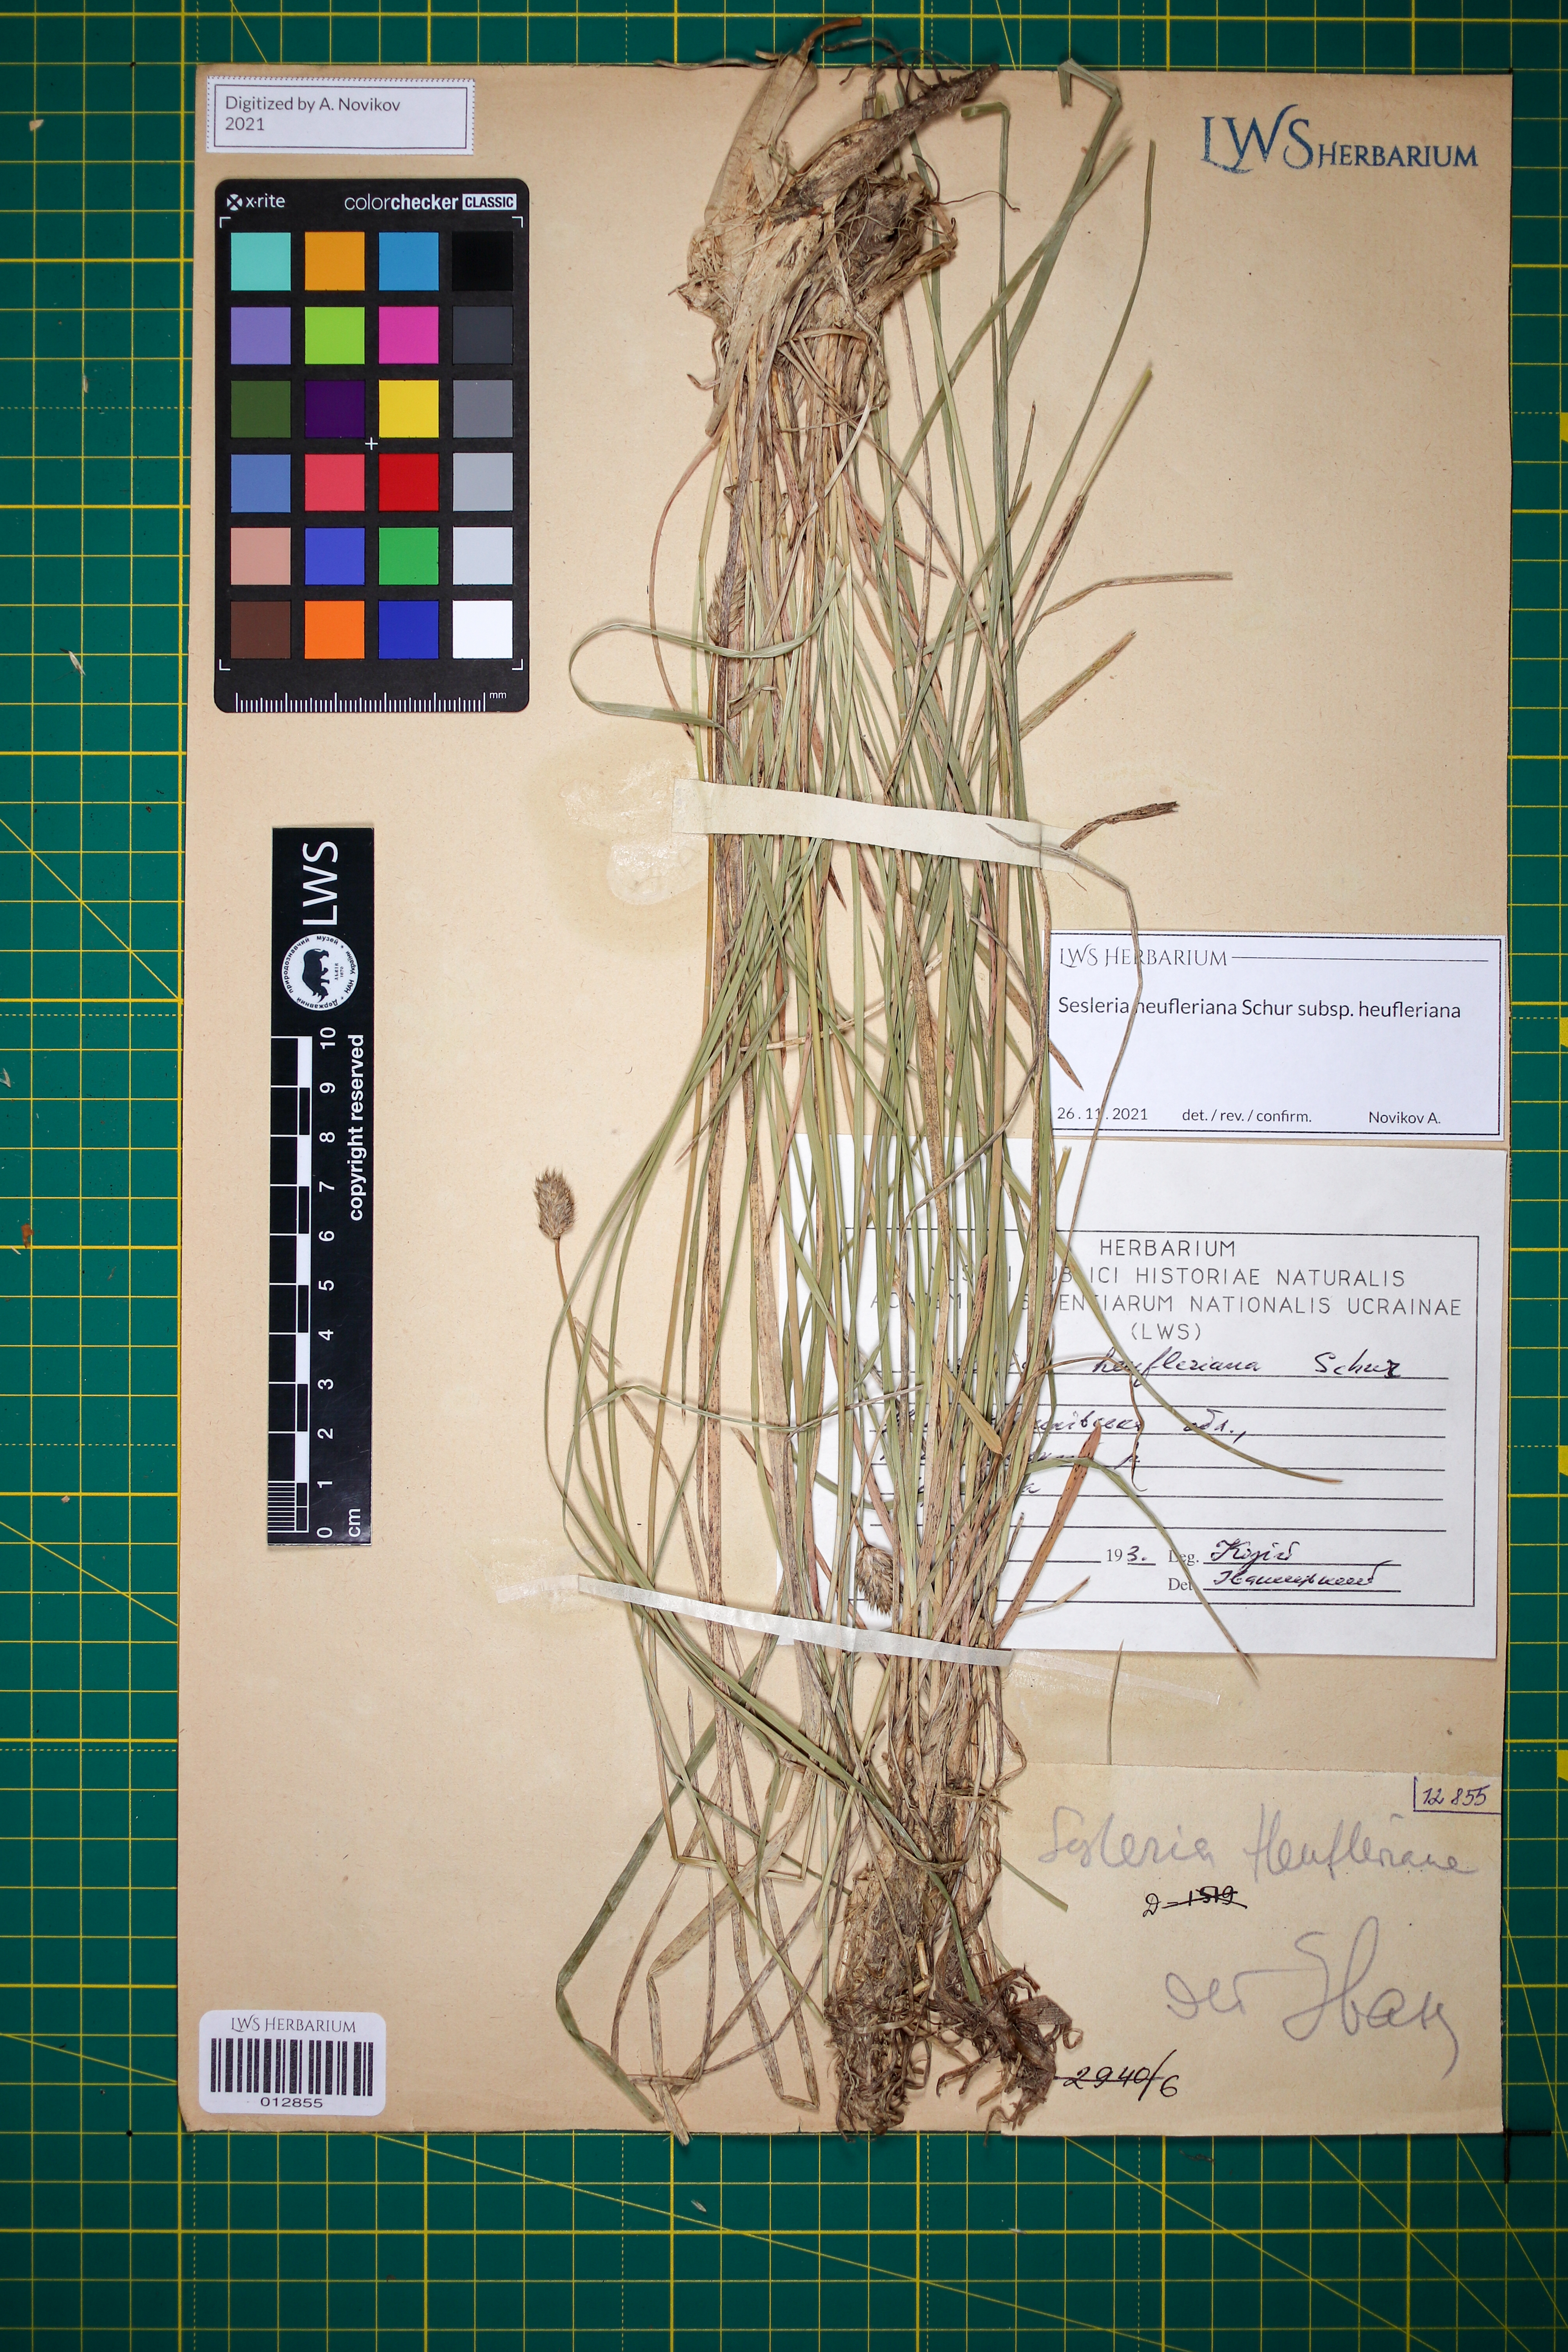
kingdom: Plantae
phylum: Tracheophyta
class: Liliopsida
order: Poales
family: Poaceae
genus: Sesleria
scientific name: Sesleria heufleriana
